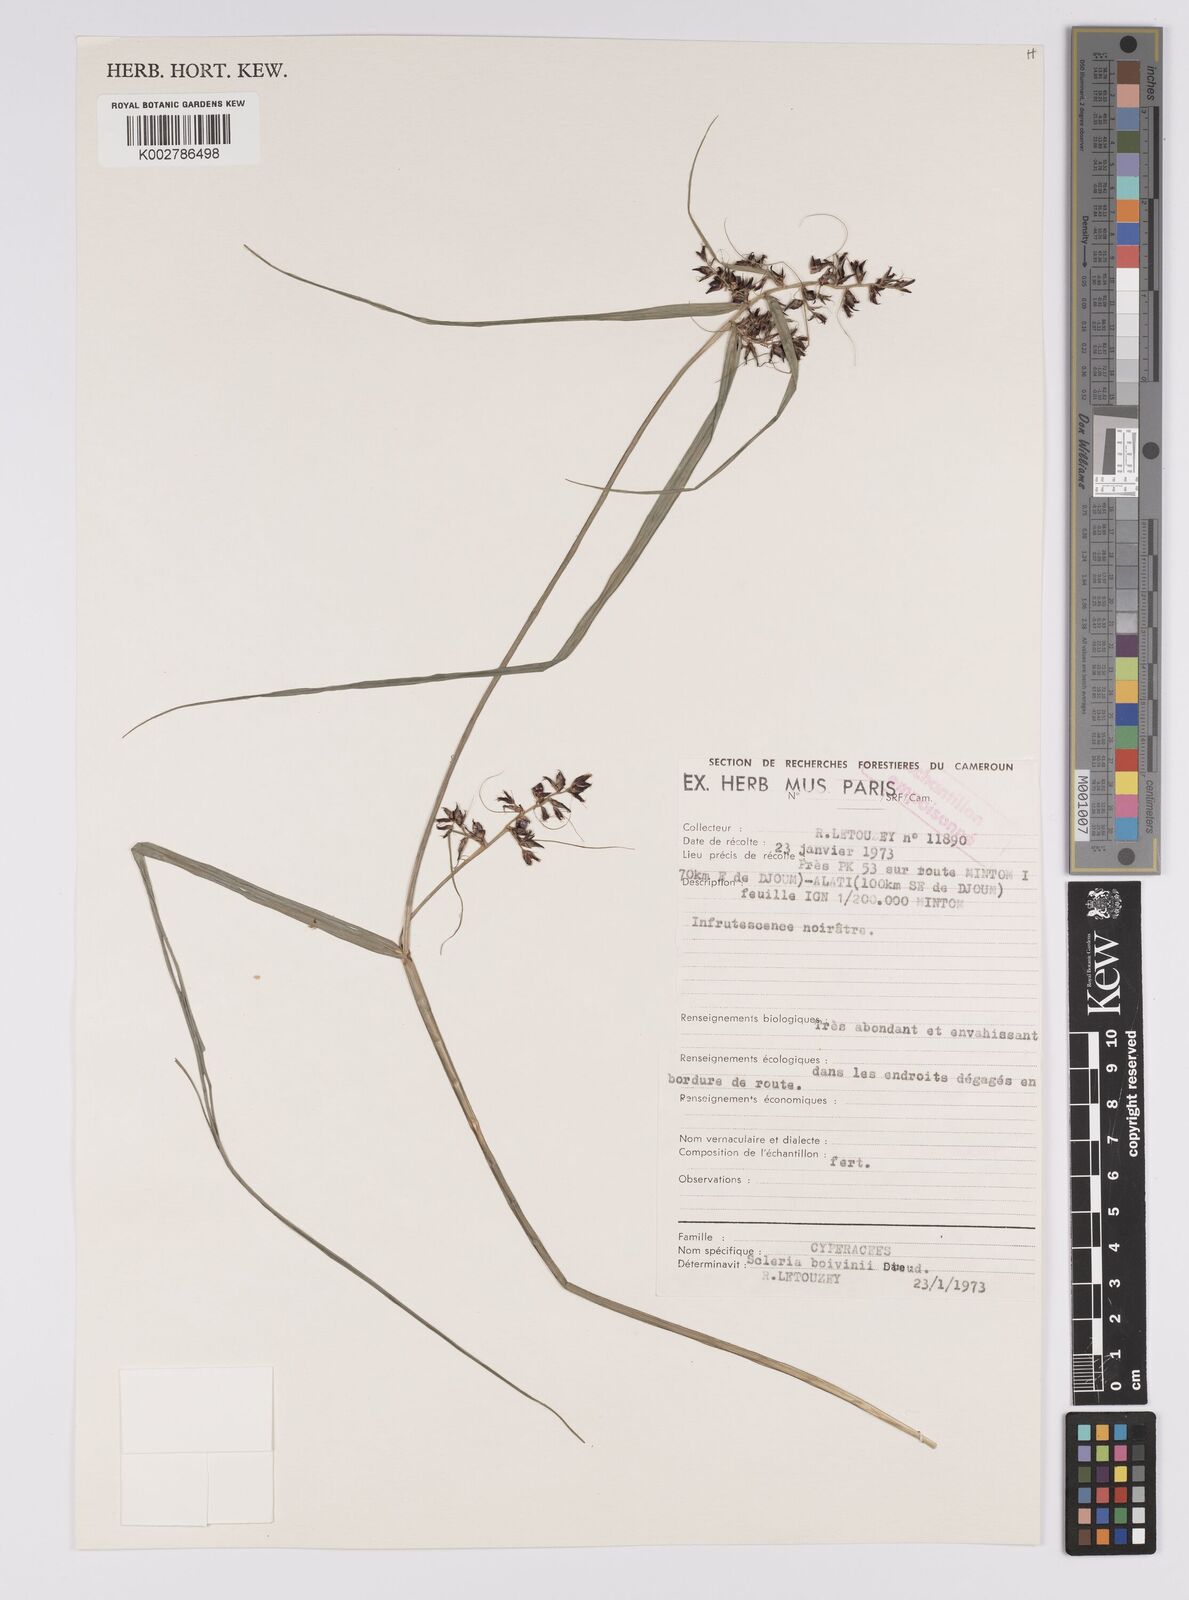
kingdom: Plantae
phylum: Tracheophyta
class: Liliopsida
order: Poales
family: Cyperaceae
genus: Scleria
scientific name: Scleria boivinii
